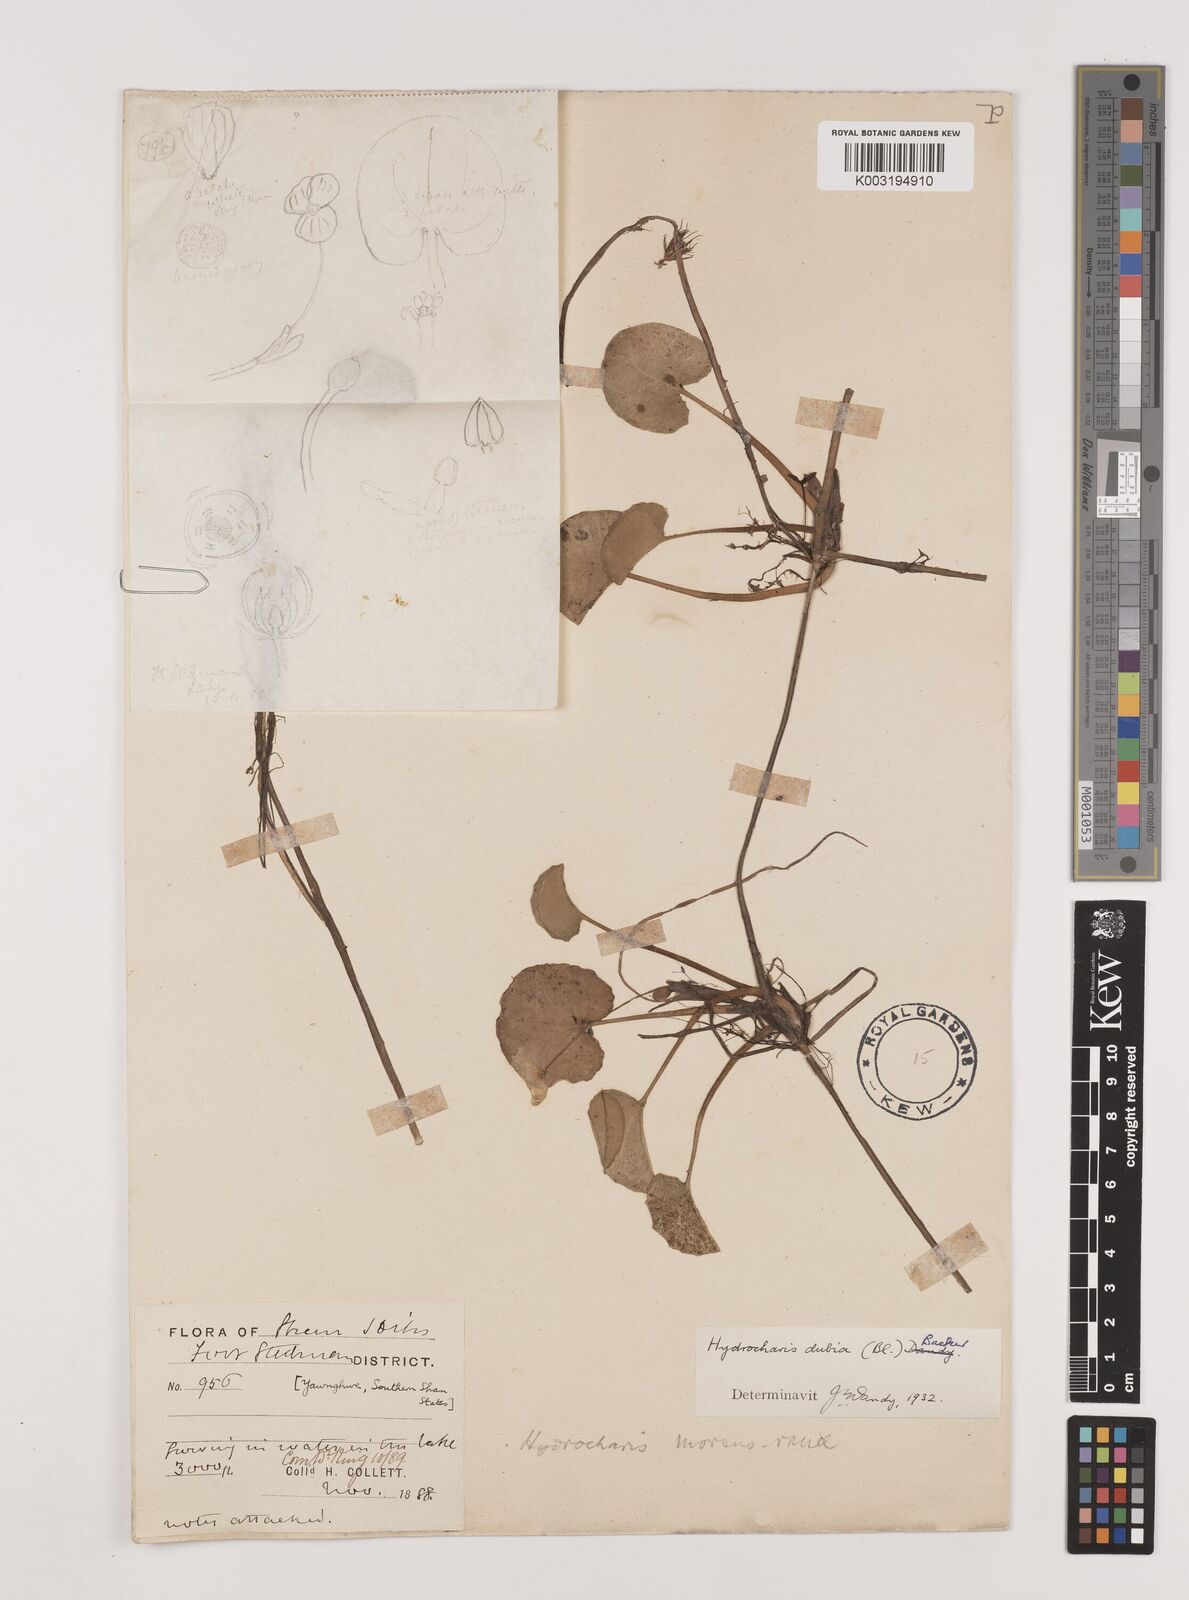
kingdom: Plantae
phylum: Tracheophyta
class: Liliopsida
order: Alismatales
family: Hydrocharitaceae
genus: Hydrocharis
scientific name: Hydrocharis dubia
